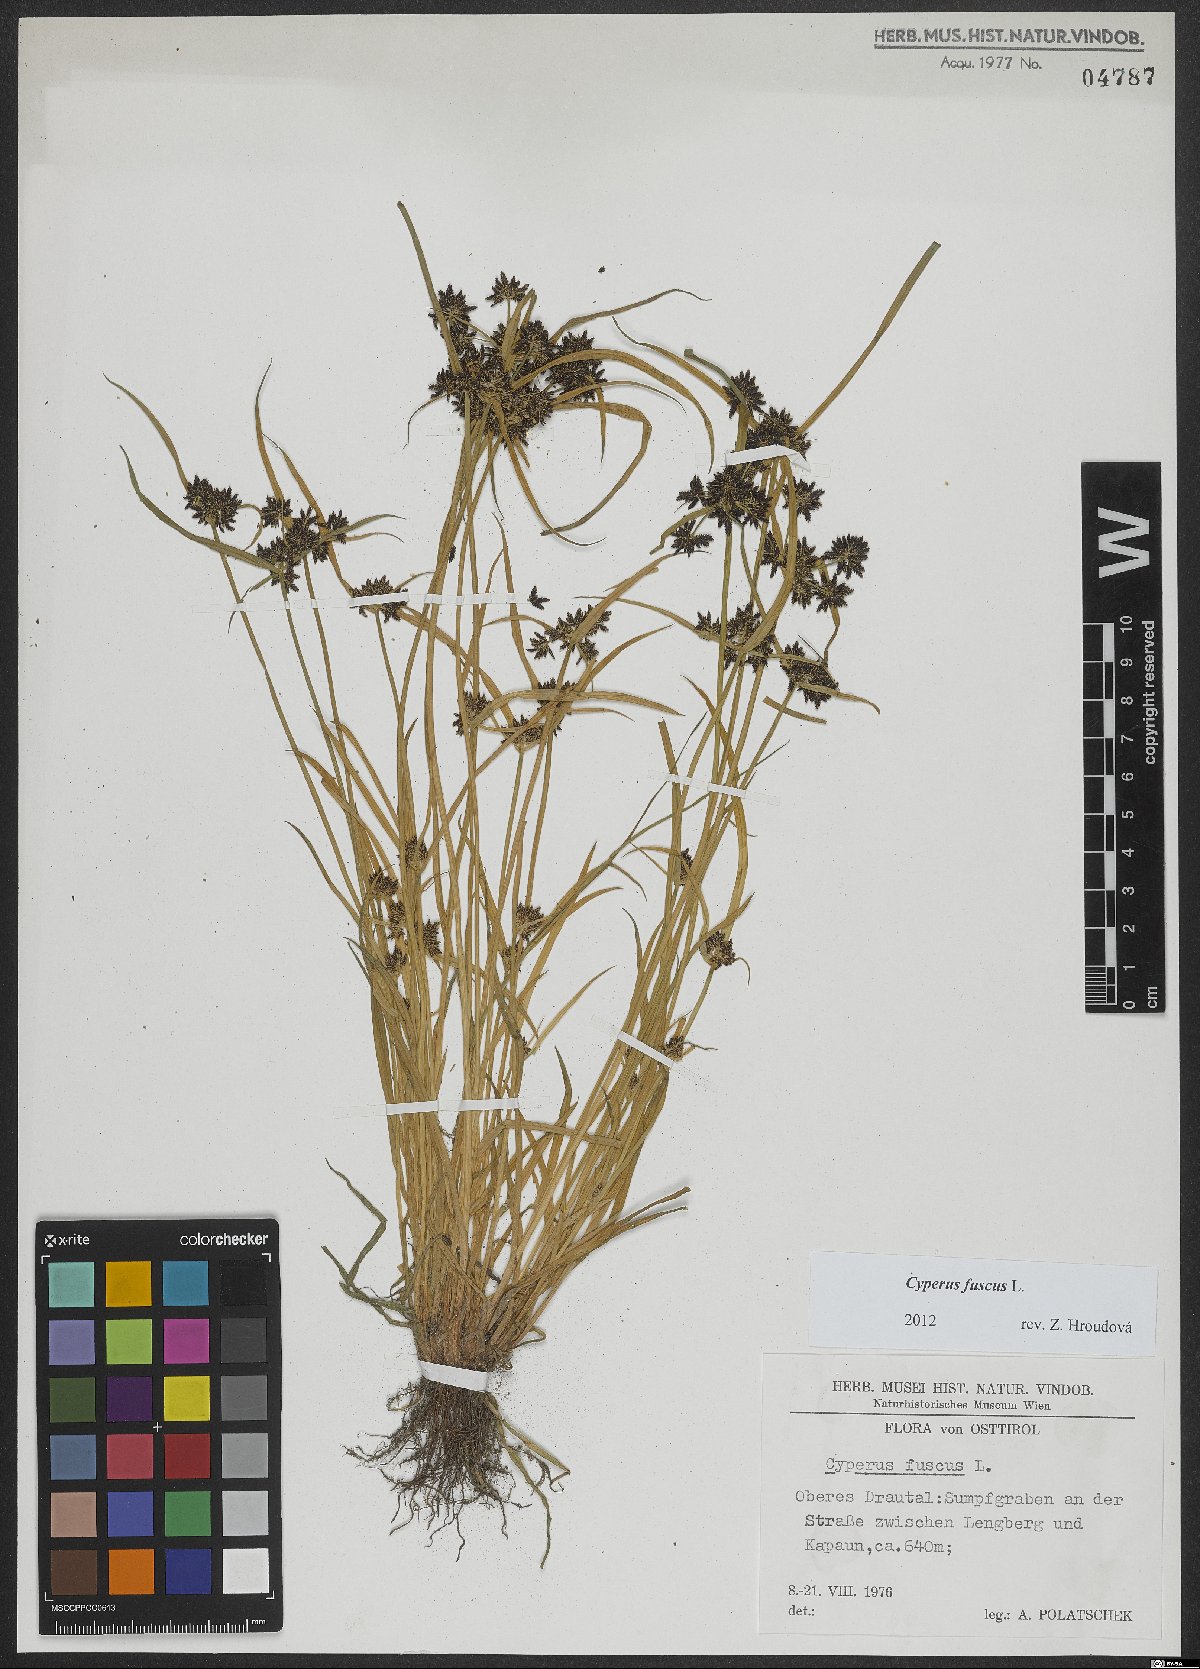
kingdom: Plantae
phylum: Tracheophyta
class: Liliopsida
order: Poales
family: Cyperaceae
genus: Cyperus
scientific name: Cyperus fuscus
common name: Brown galingale
